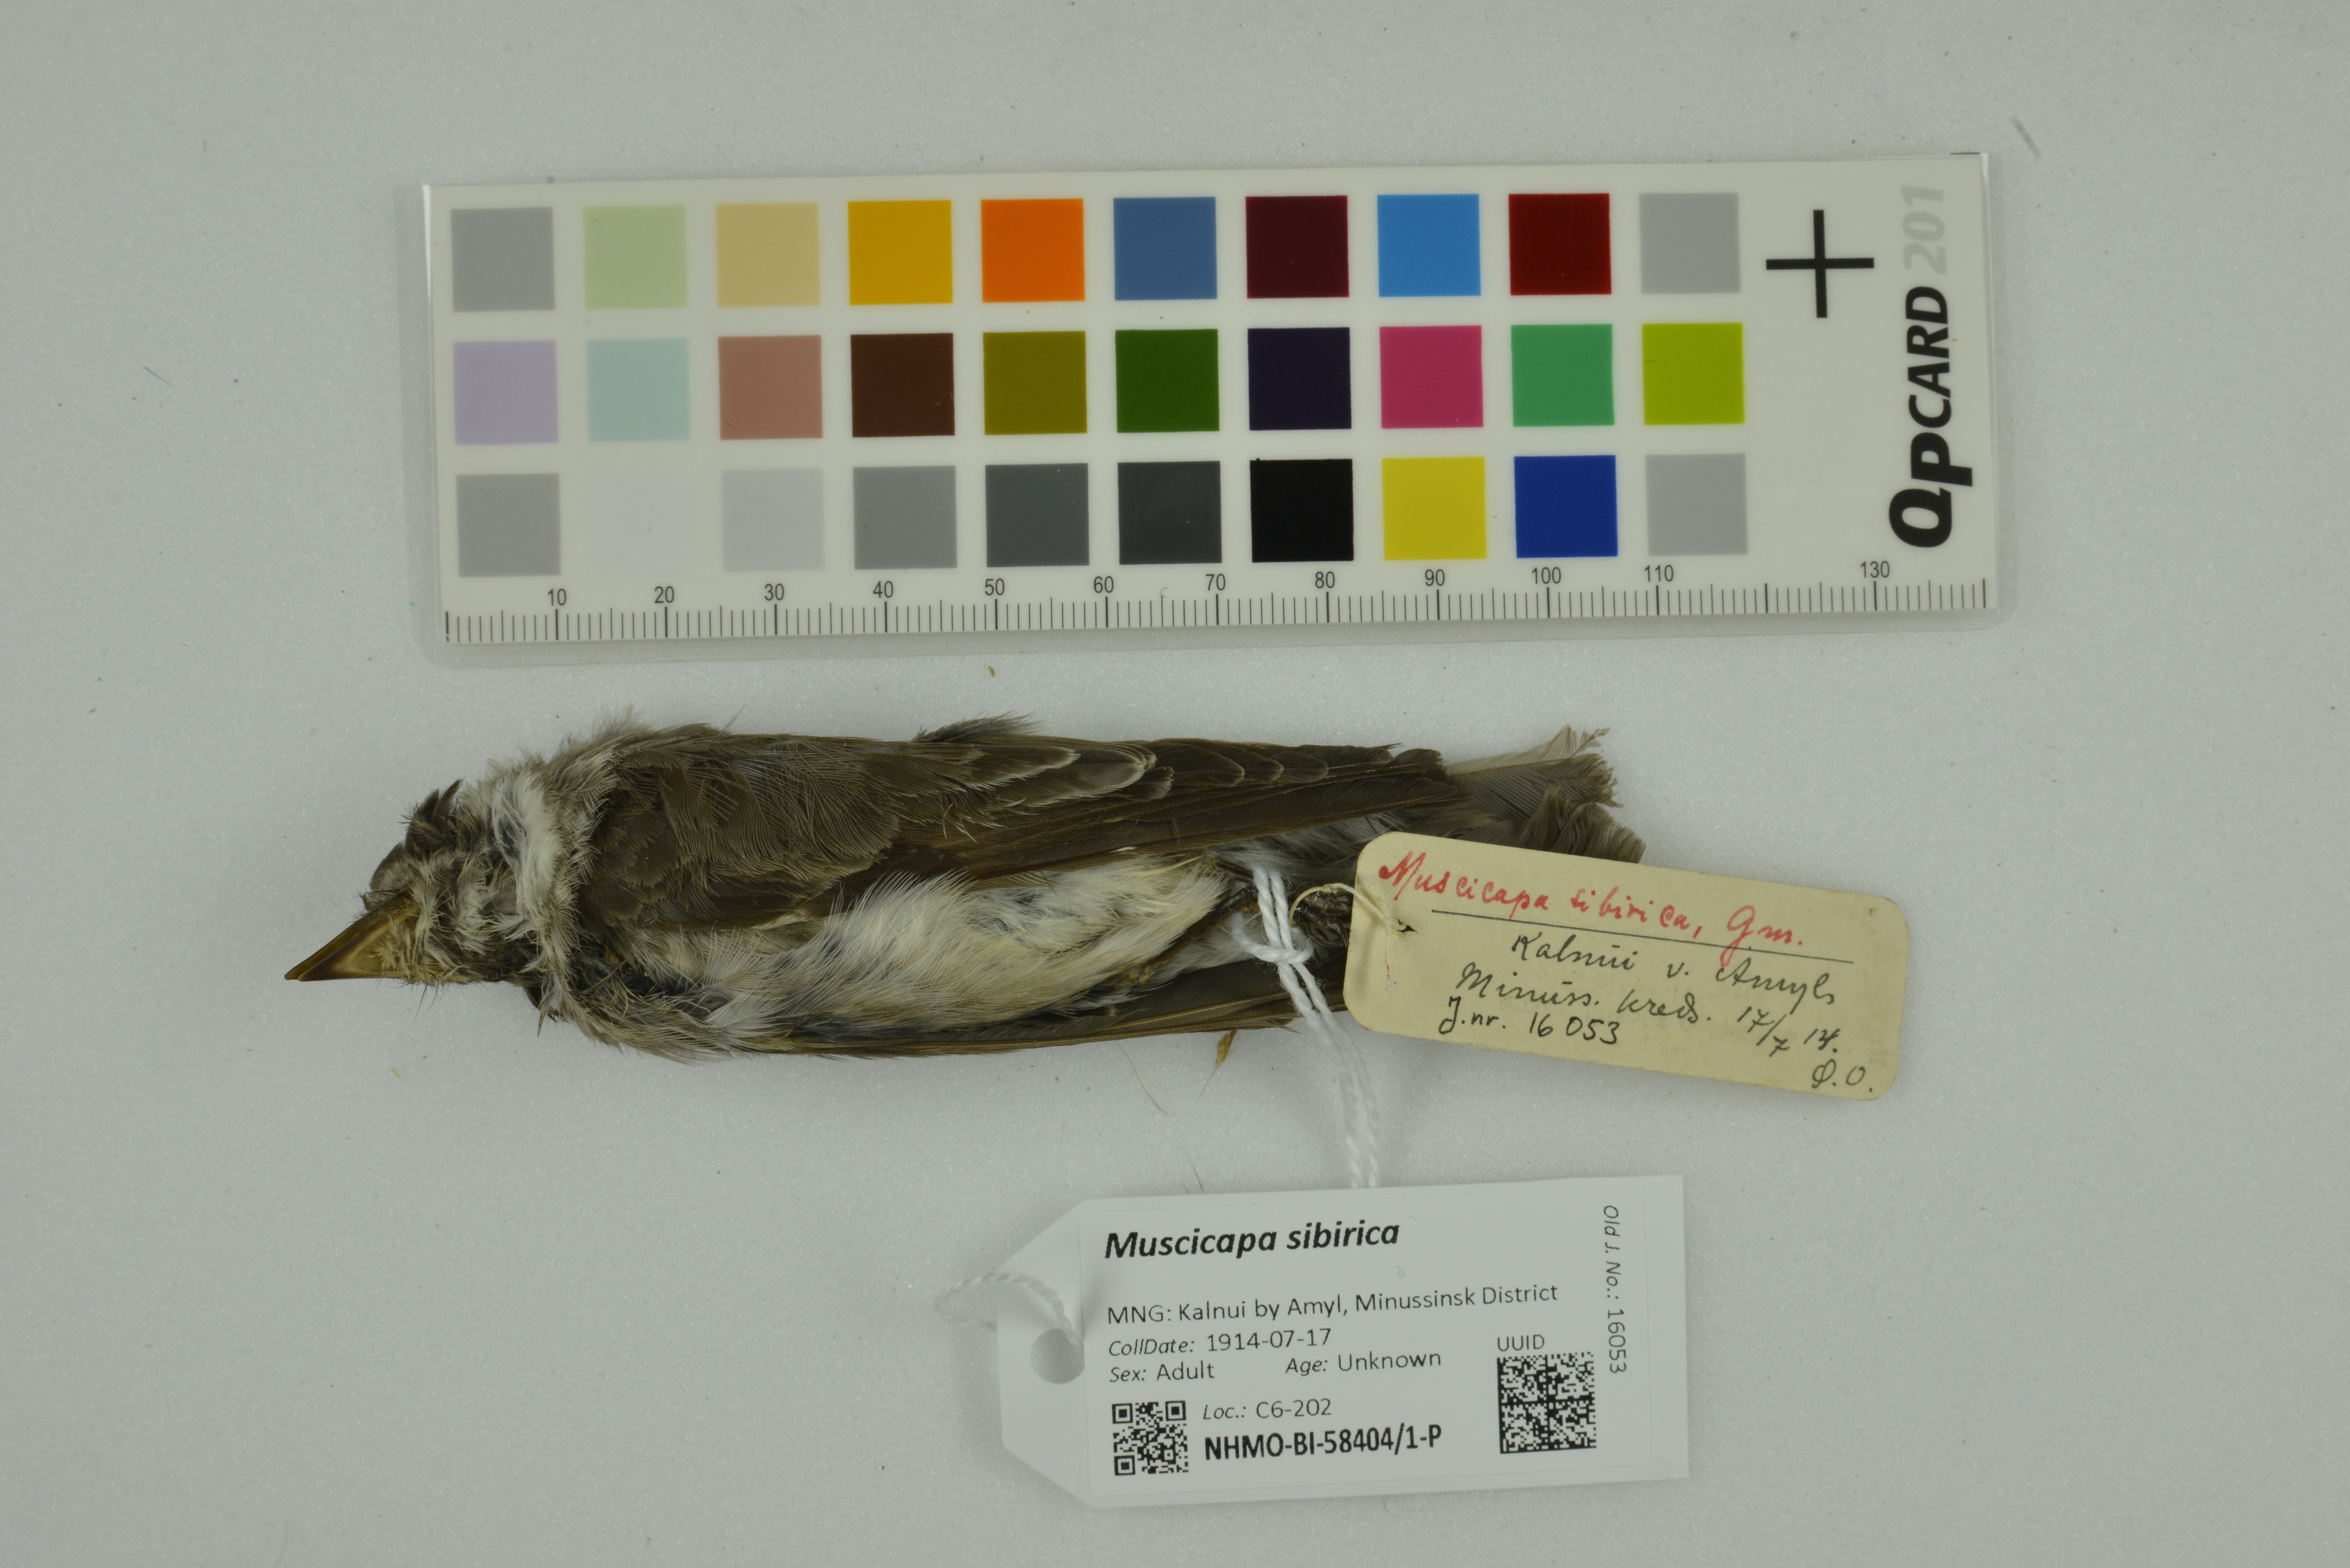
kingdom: Animalia
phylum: Chordata
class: Aves
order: Passeriformes
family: Muscicapidae
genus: Muscicapa
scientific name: Muscicapa sibirica
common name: Dark-sided flycatcher
